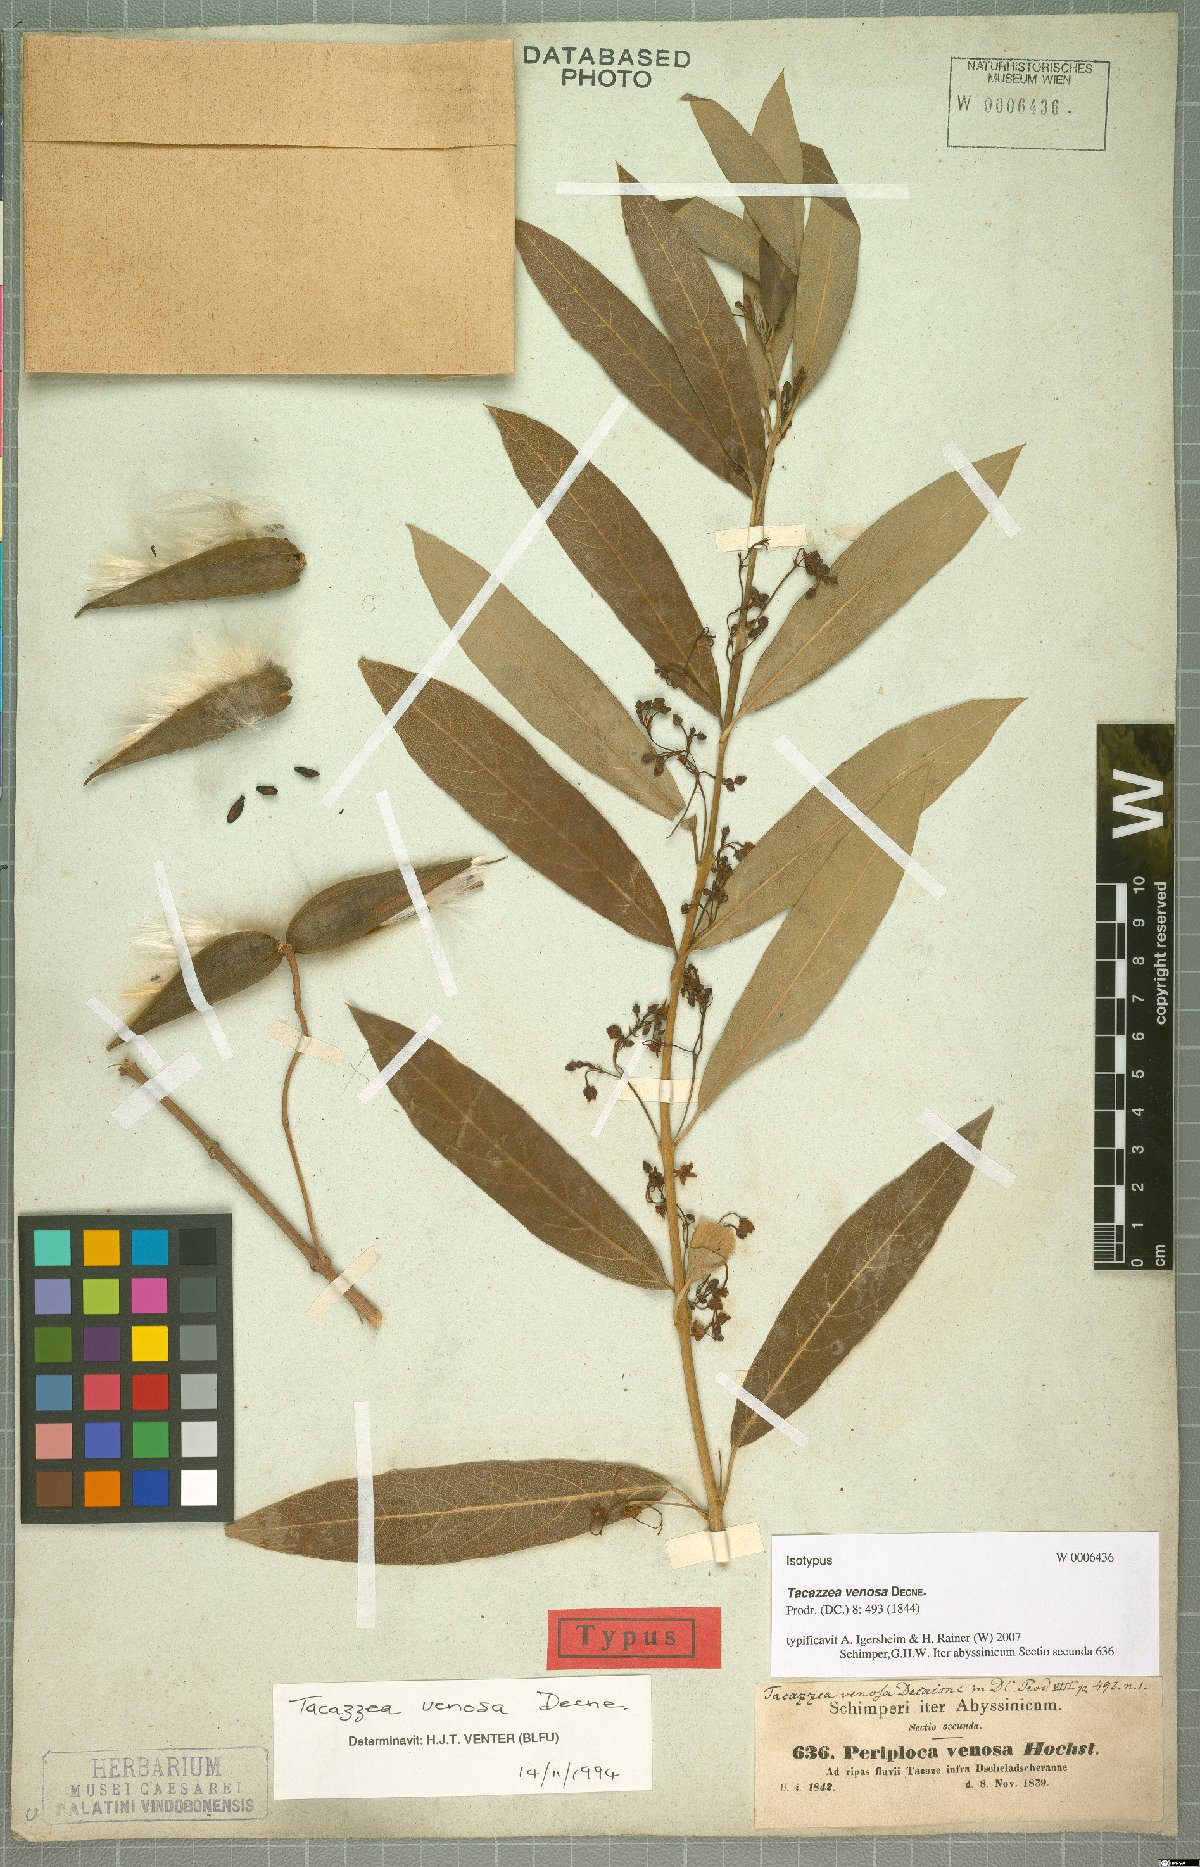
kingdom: Plantae
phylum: Tracheophyta
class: Magnoliopsida
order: Gentianales
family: Apocynaceae
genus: Tacazzea
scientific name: Tacazzea venosa
